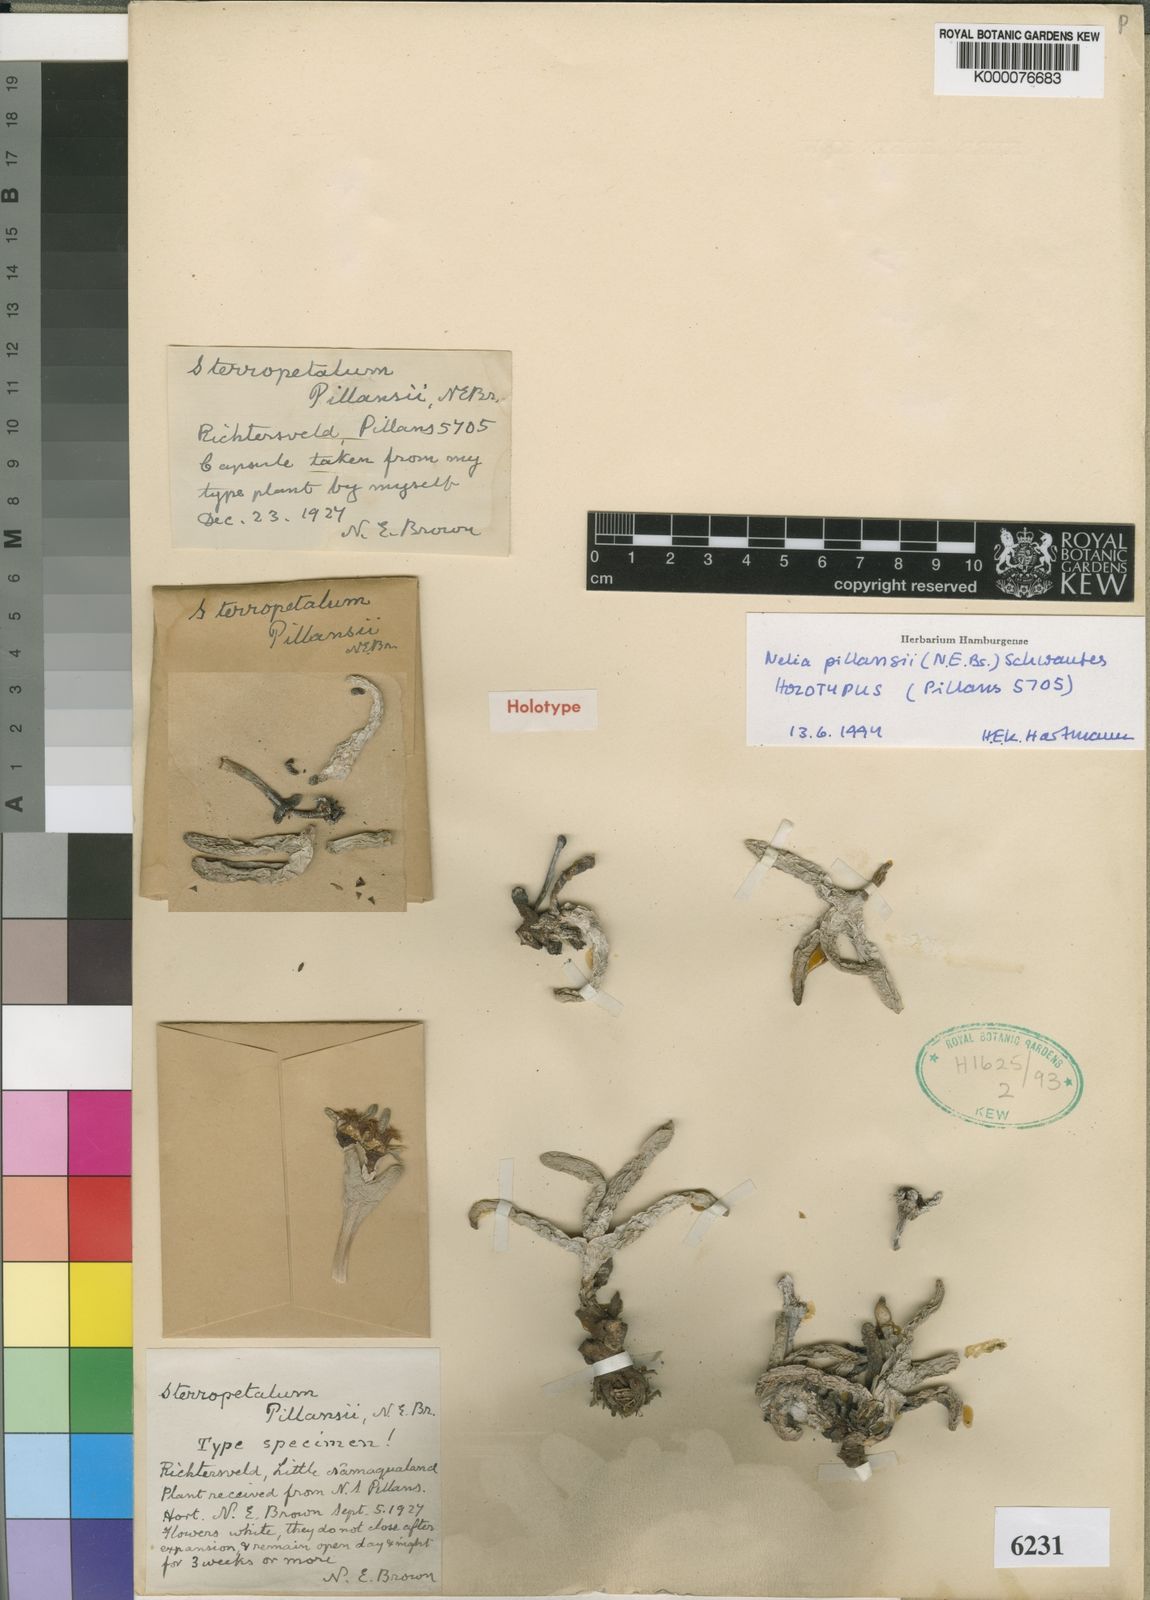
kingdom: Plantae
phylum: Tracheophyta
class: Magnoliopsida
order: Caryophyllales
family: Aizoaceae
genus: Nelia
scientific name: Nelia pillansii
